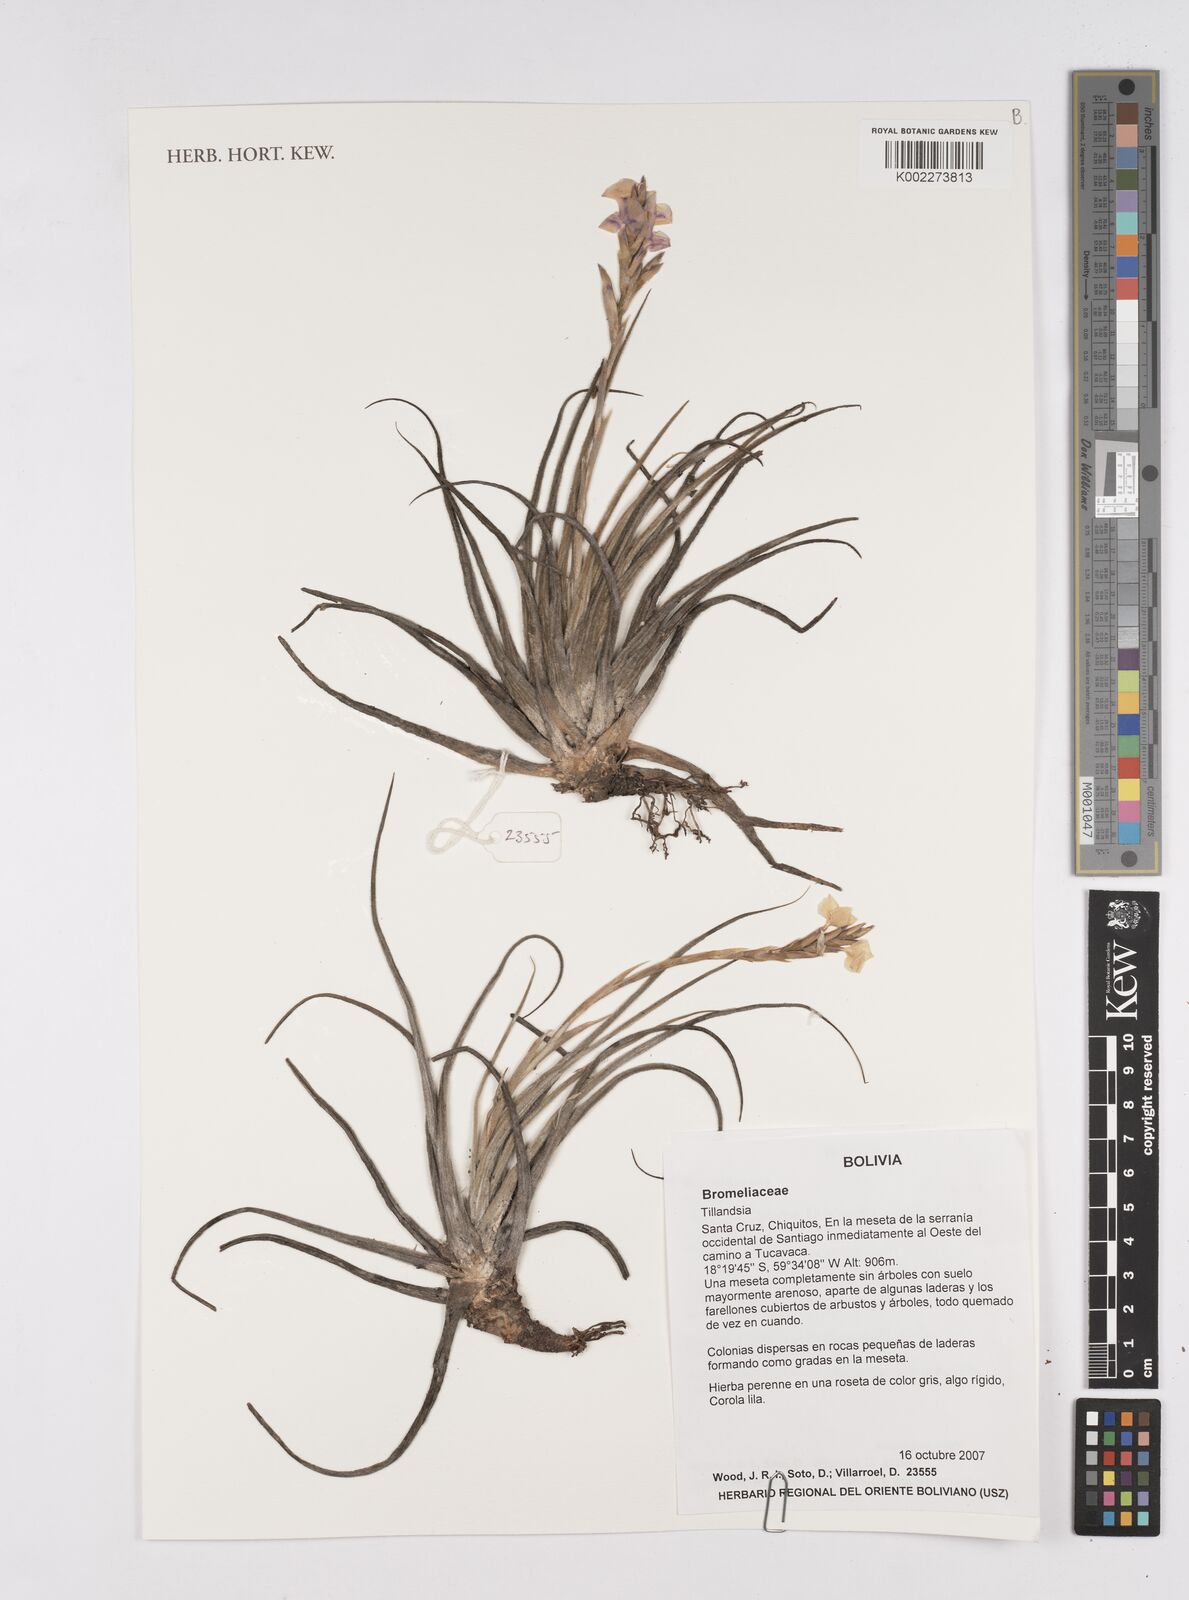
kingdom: Plantae
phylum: Tracheophyta
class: Liliopsida
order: Poales
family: Bromeliaceae
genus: Tillandsia
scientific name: Tillandsia
